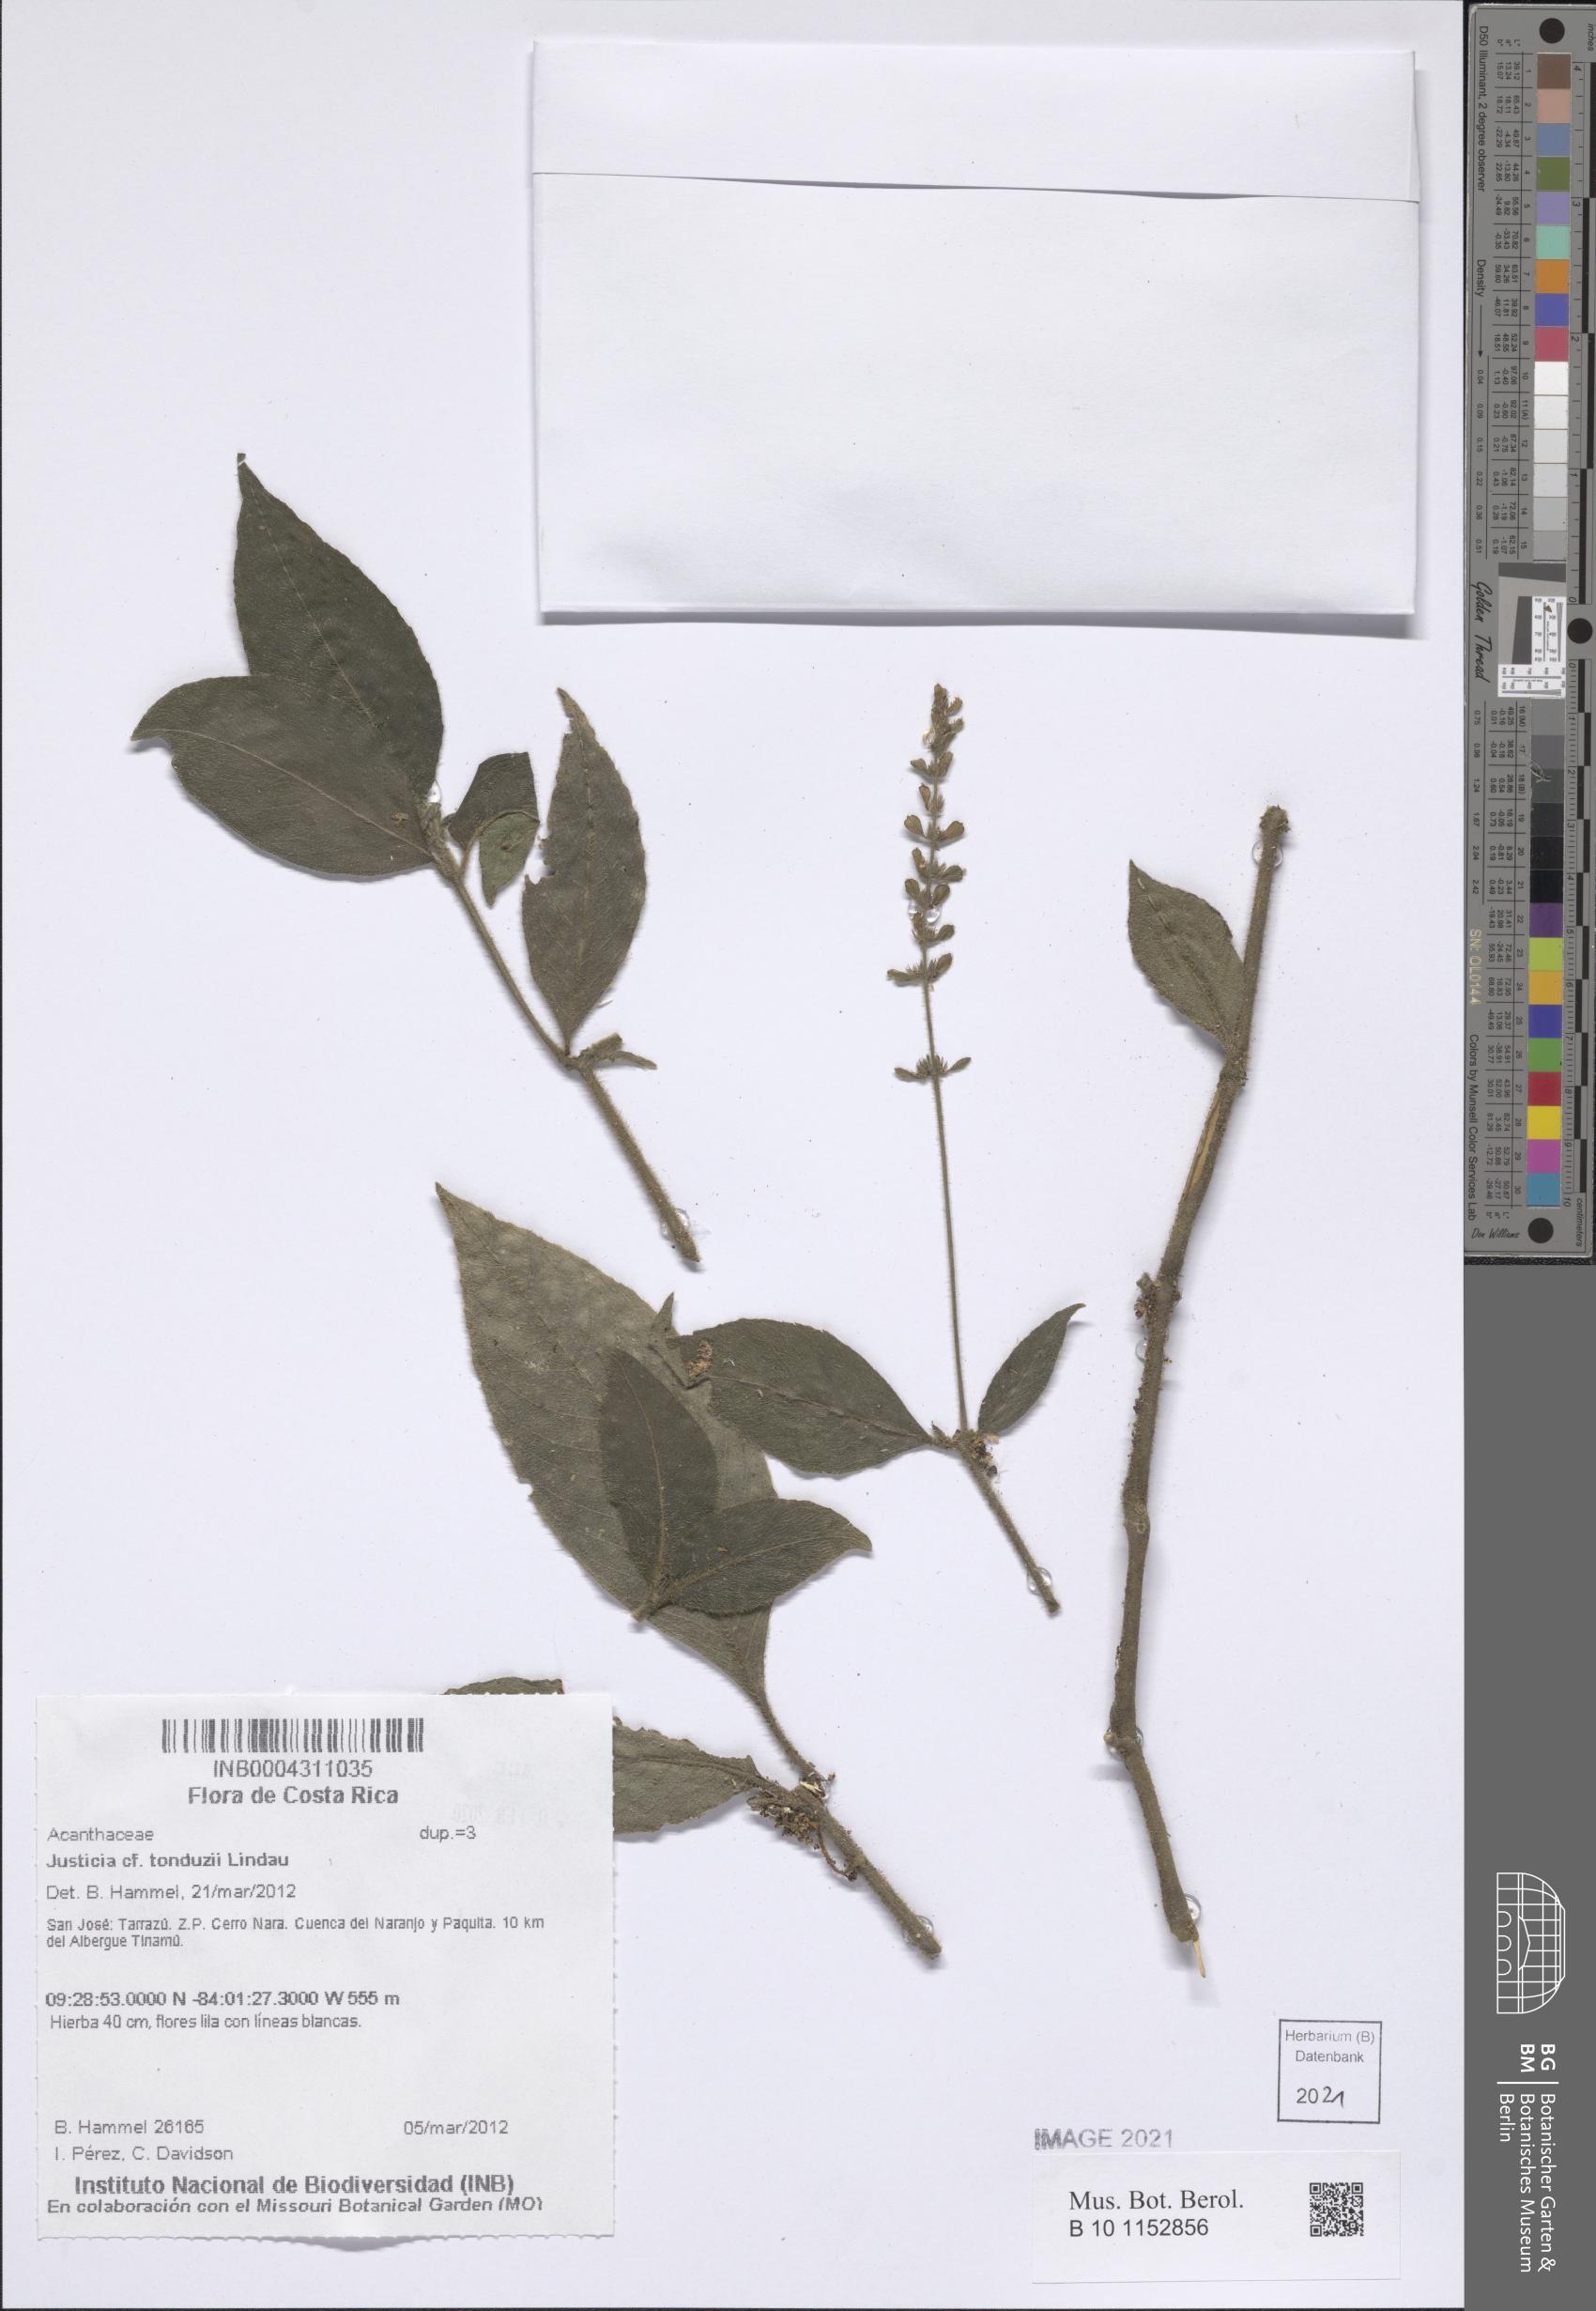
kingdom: Plantae
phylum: Tracheophyta
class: Magnoliopsida
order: Lamiales
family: Acanthaceae
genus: Justicia
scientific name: Justicia tonduzii
